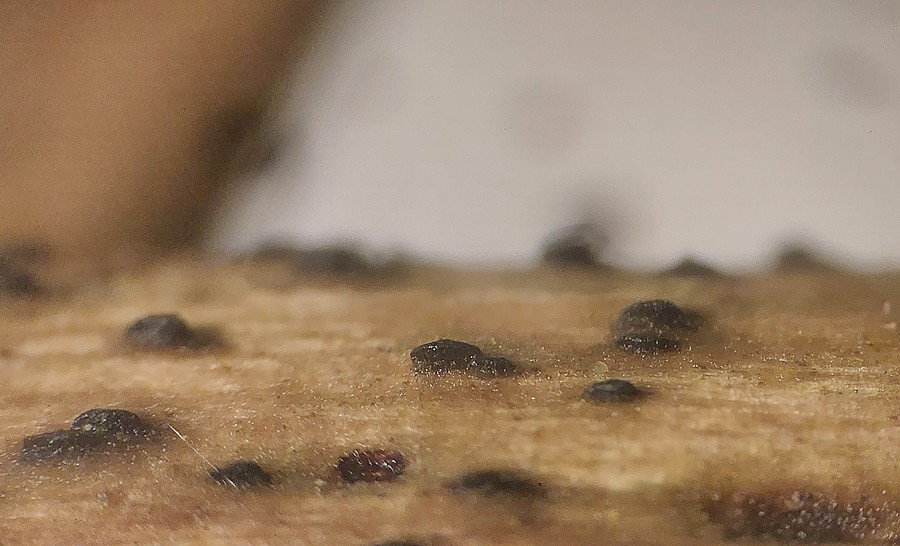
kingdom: Fungi
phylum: Ascomycota
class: Dothideomycetes
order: Pleosporales
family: Lophiostomataceae
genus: Lophiostoma
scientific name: Lophiostoma compressum
